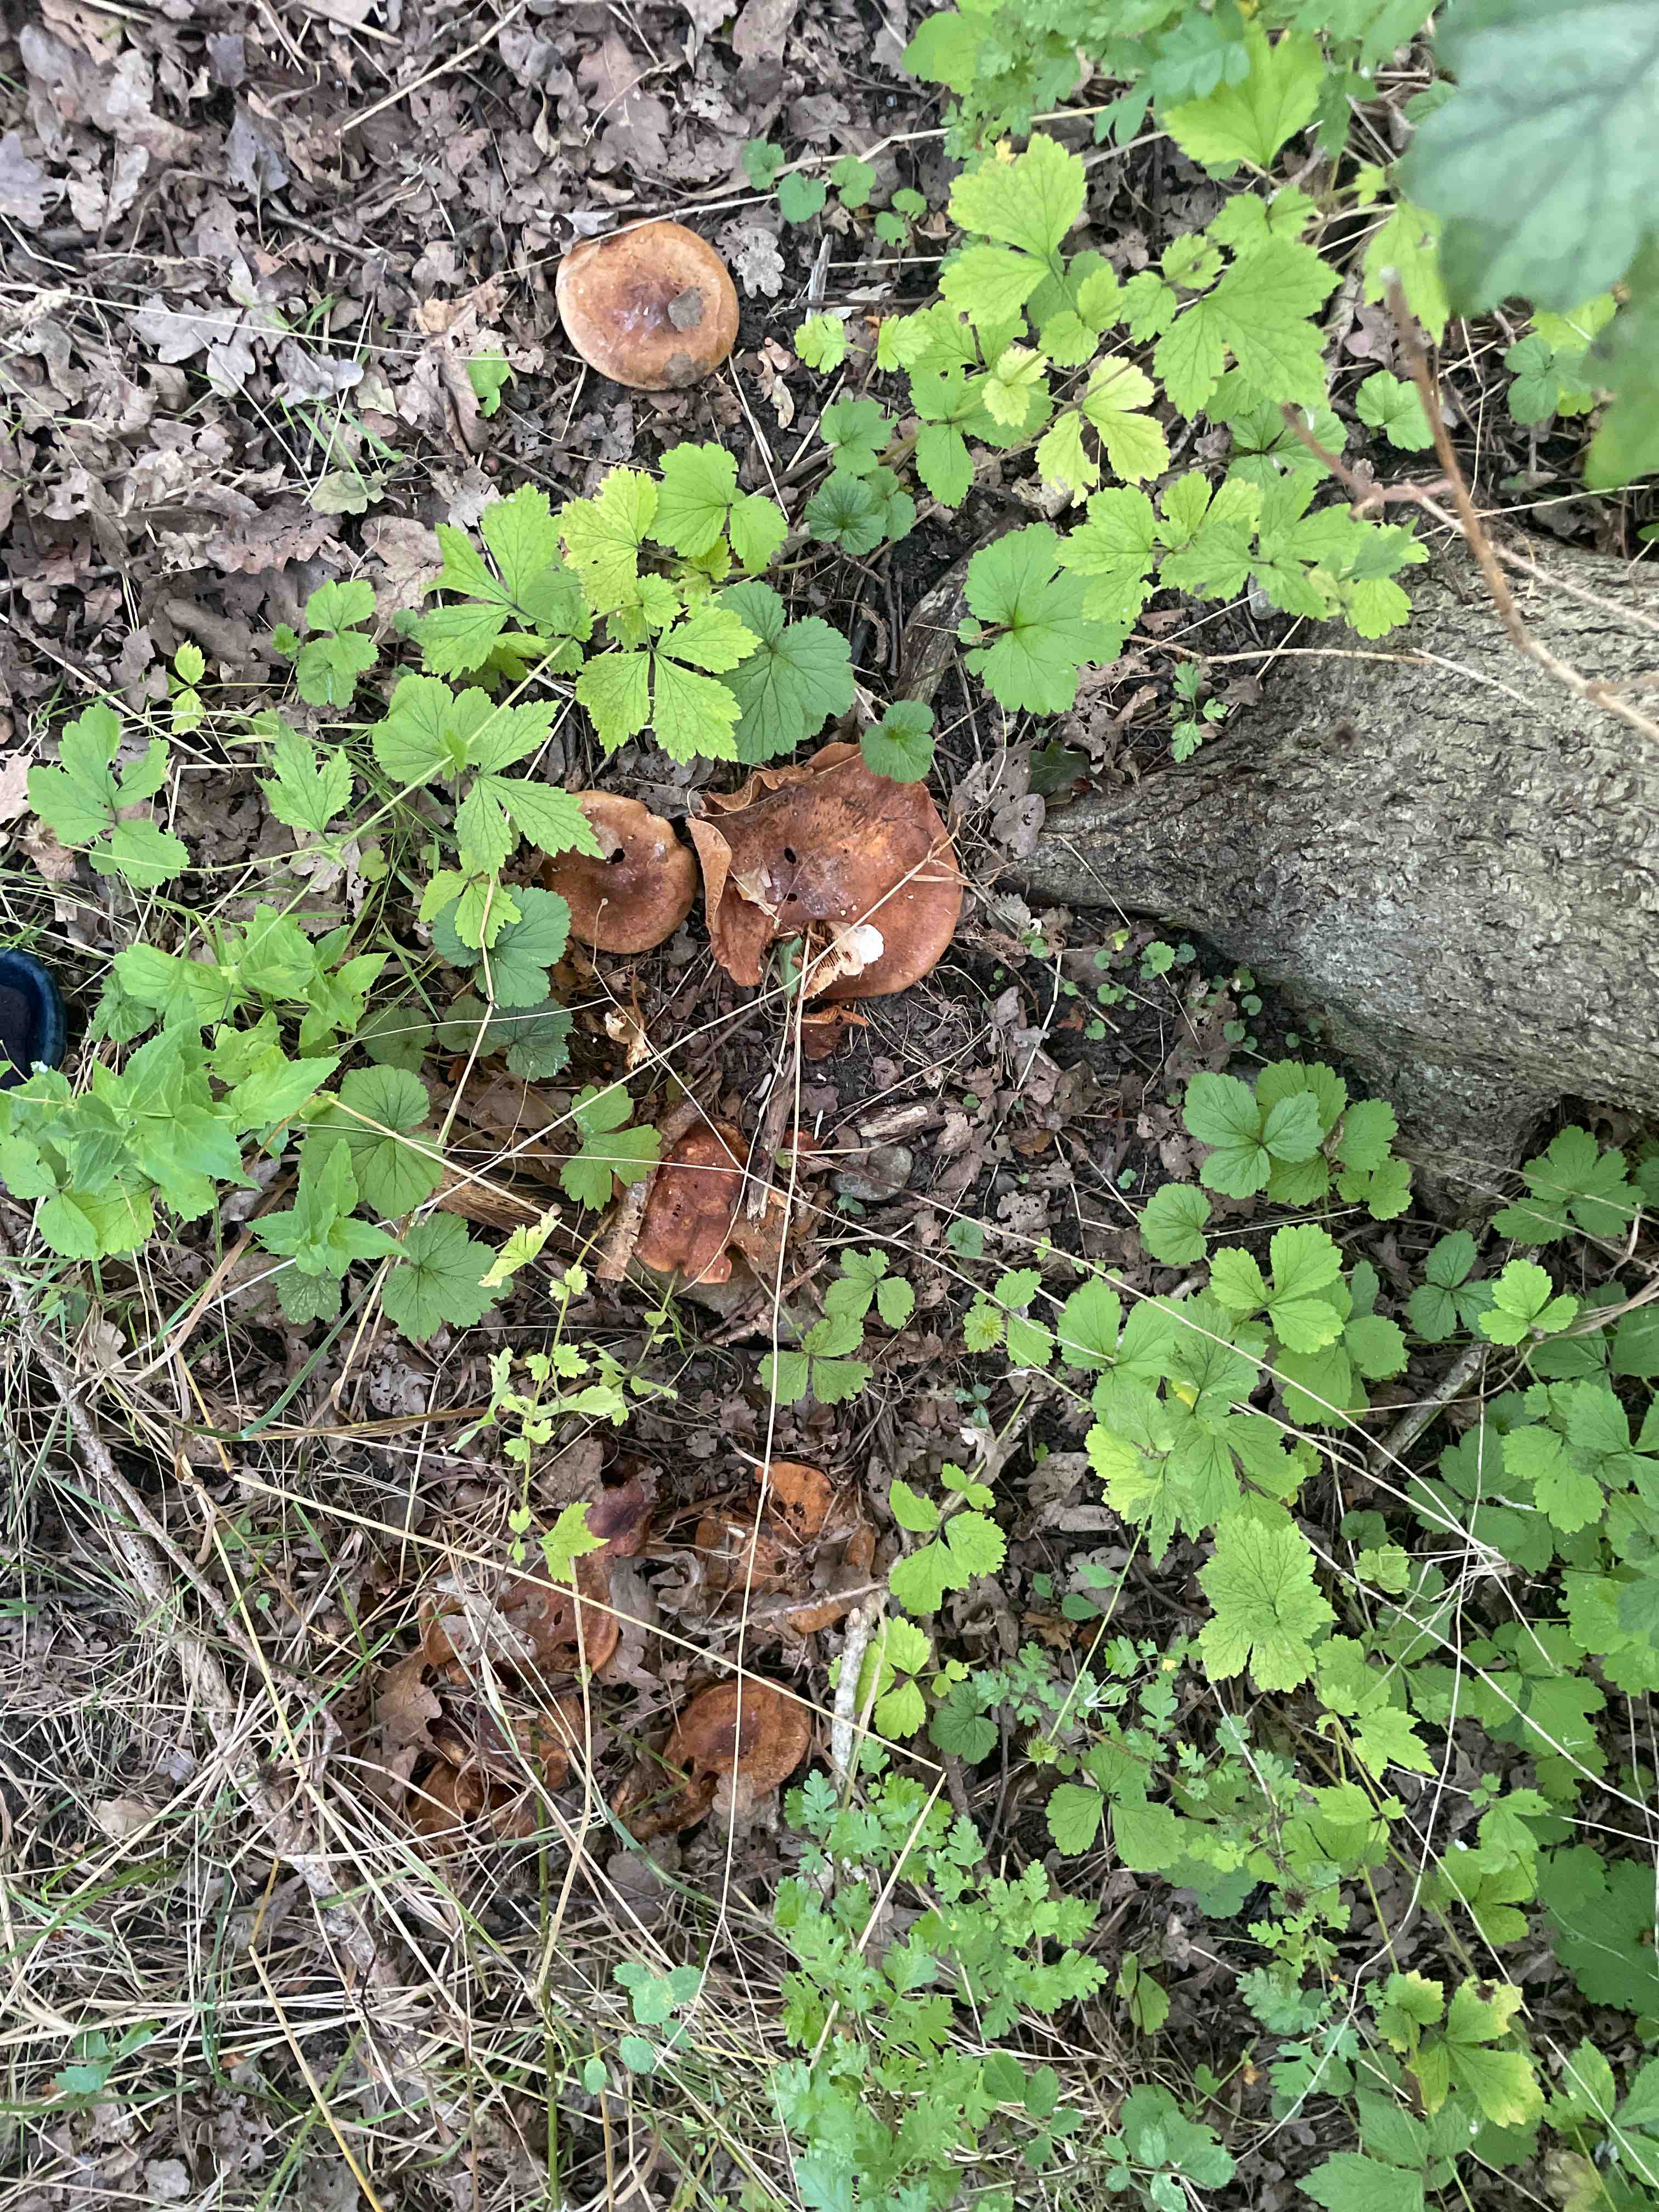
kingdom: Fungi
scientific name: Fungi
